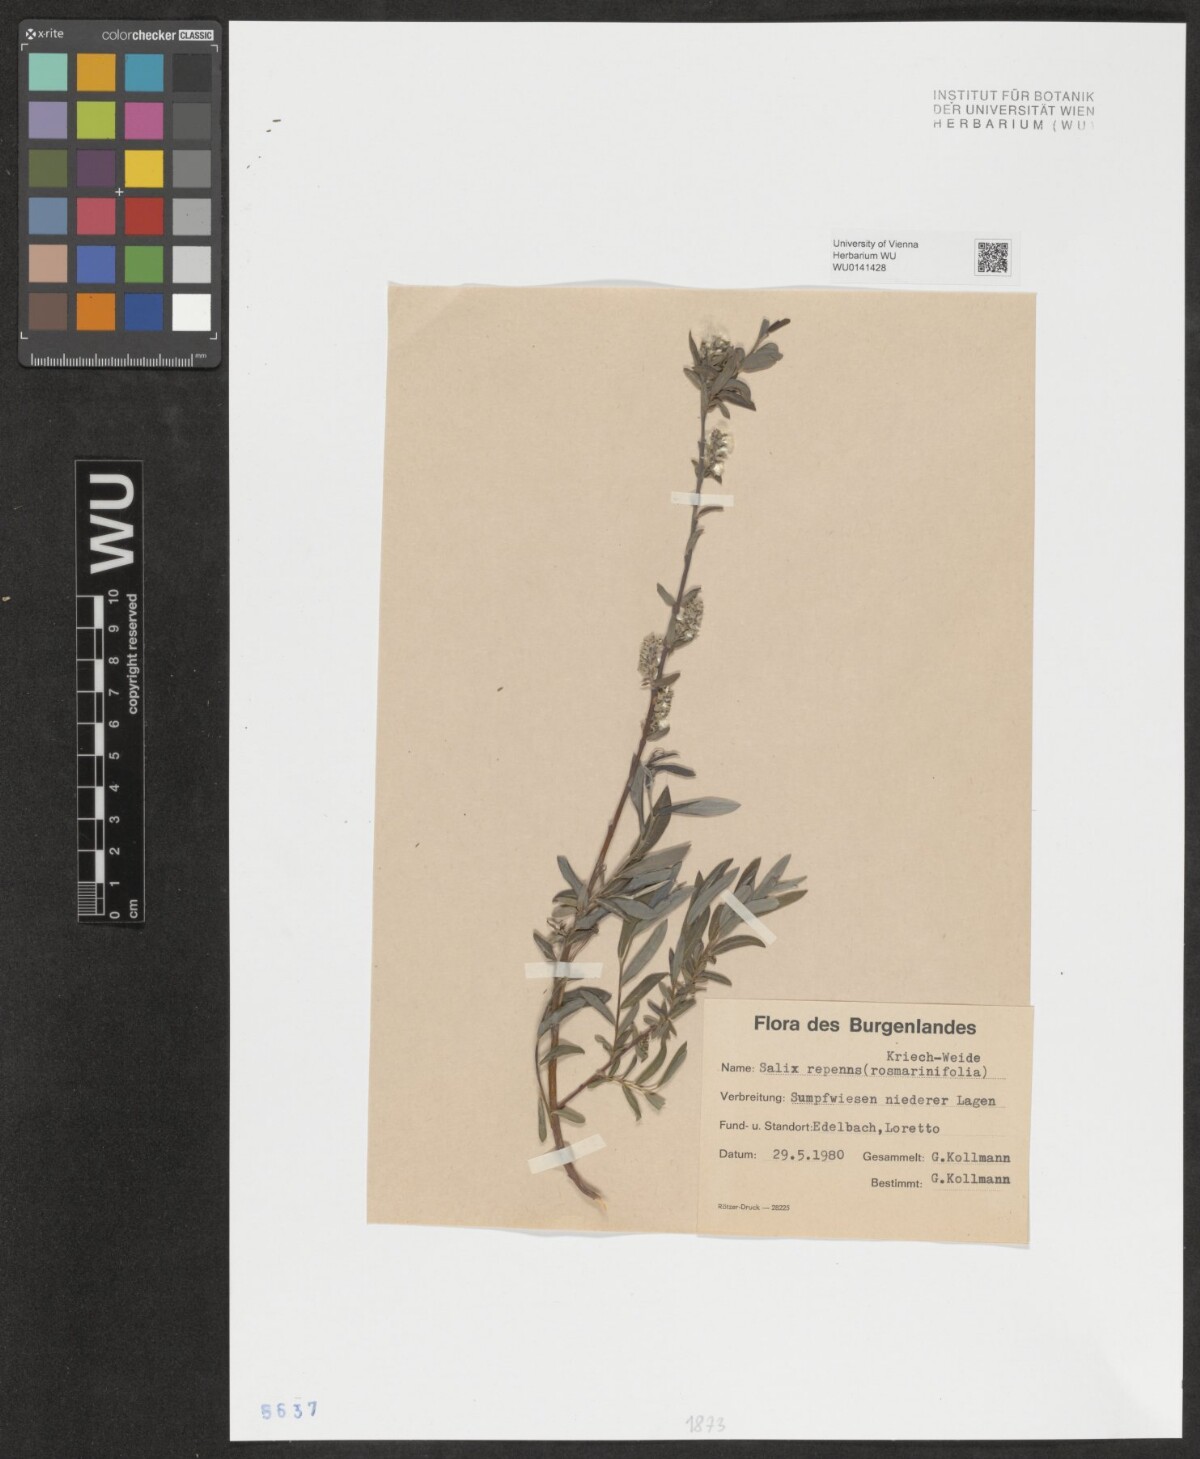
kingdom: Plantae
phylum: Tracheophyta
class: Magnoliopsida
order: Malpighiales
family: Salicaceae
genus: Salix
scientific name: Salix repens
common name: Creeping willow
